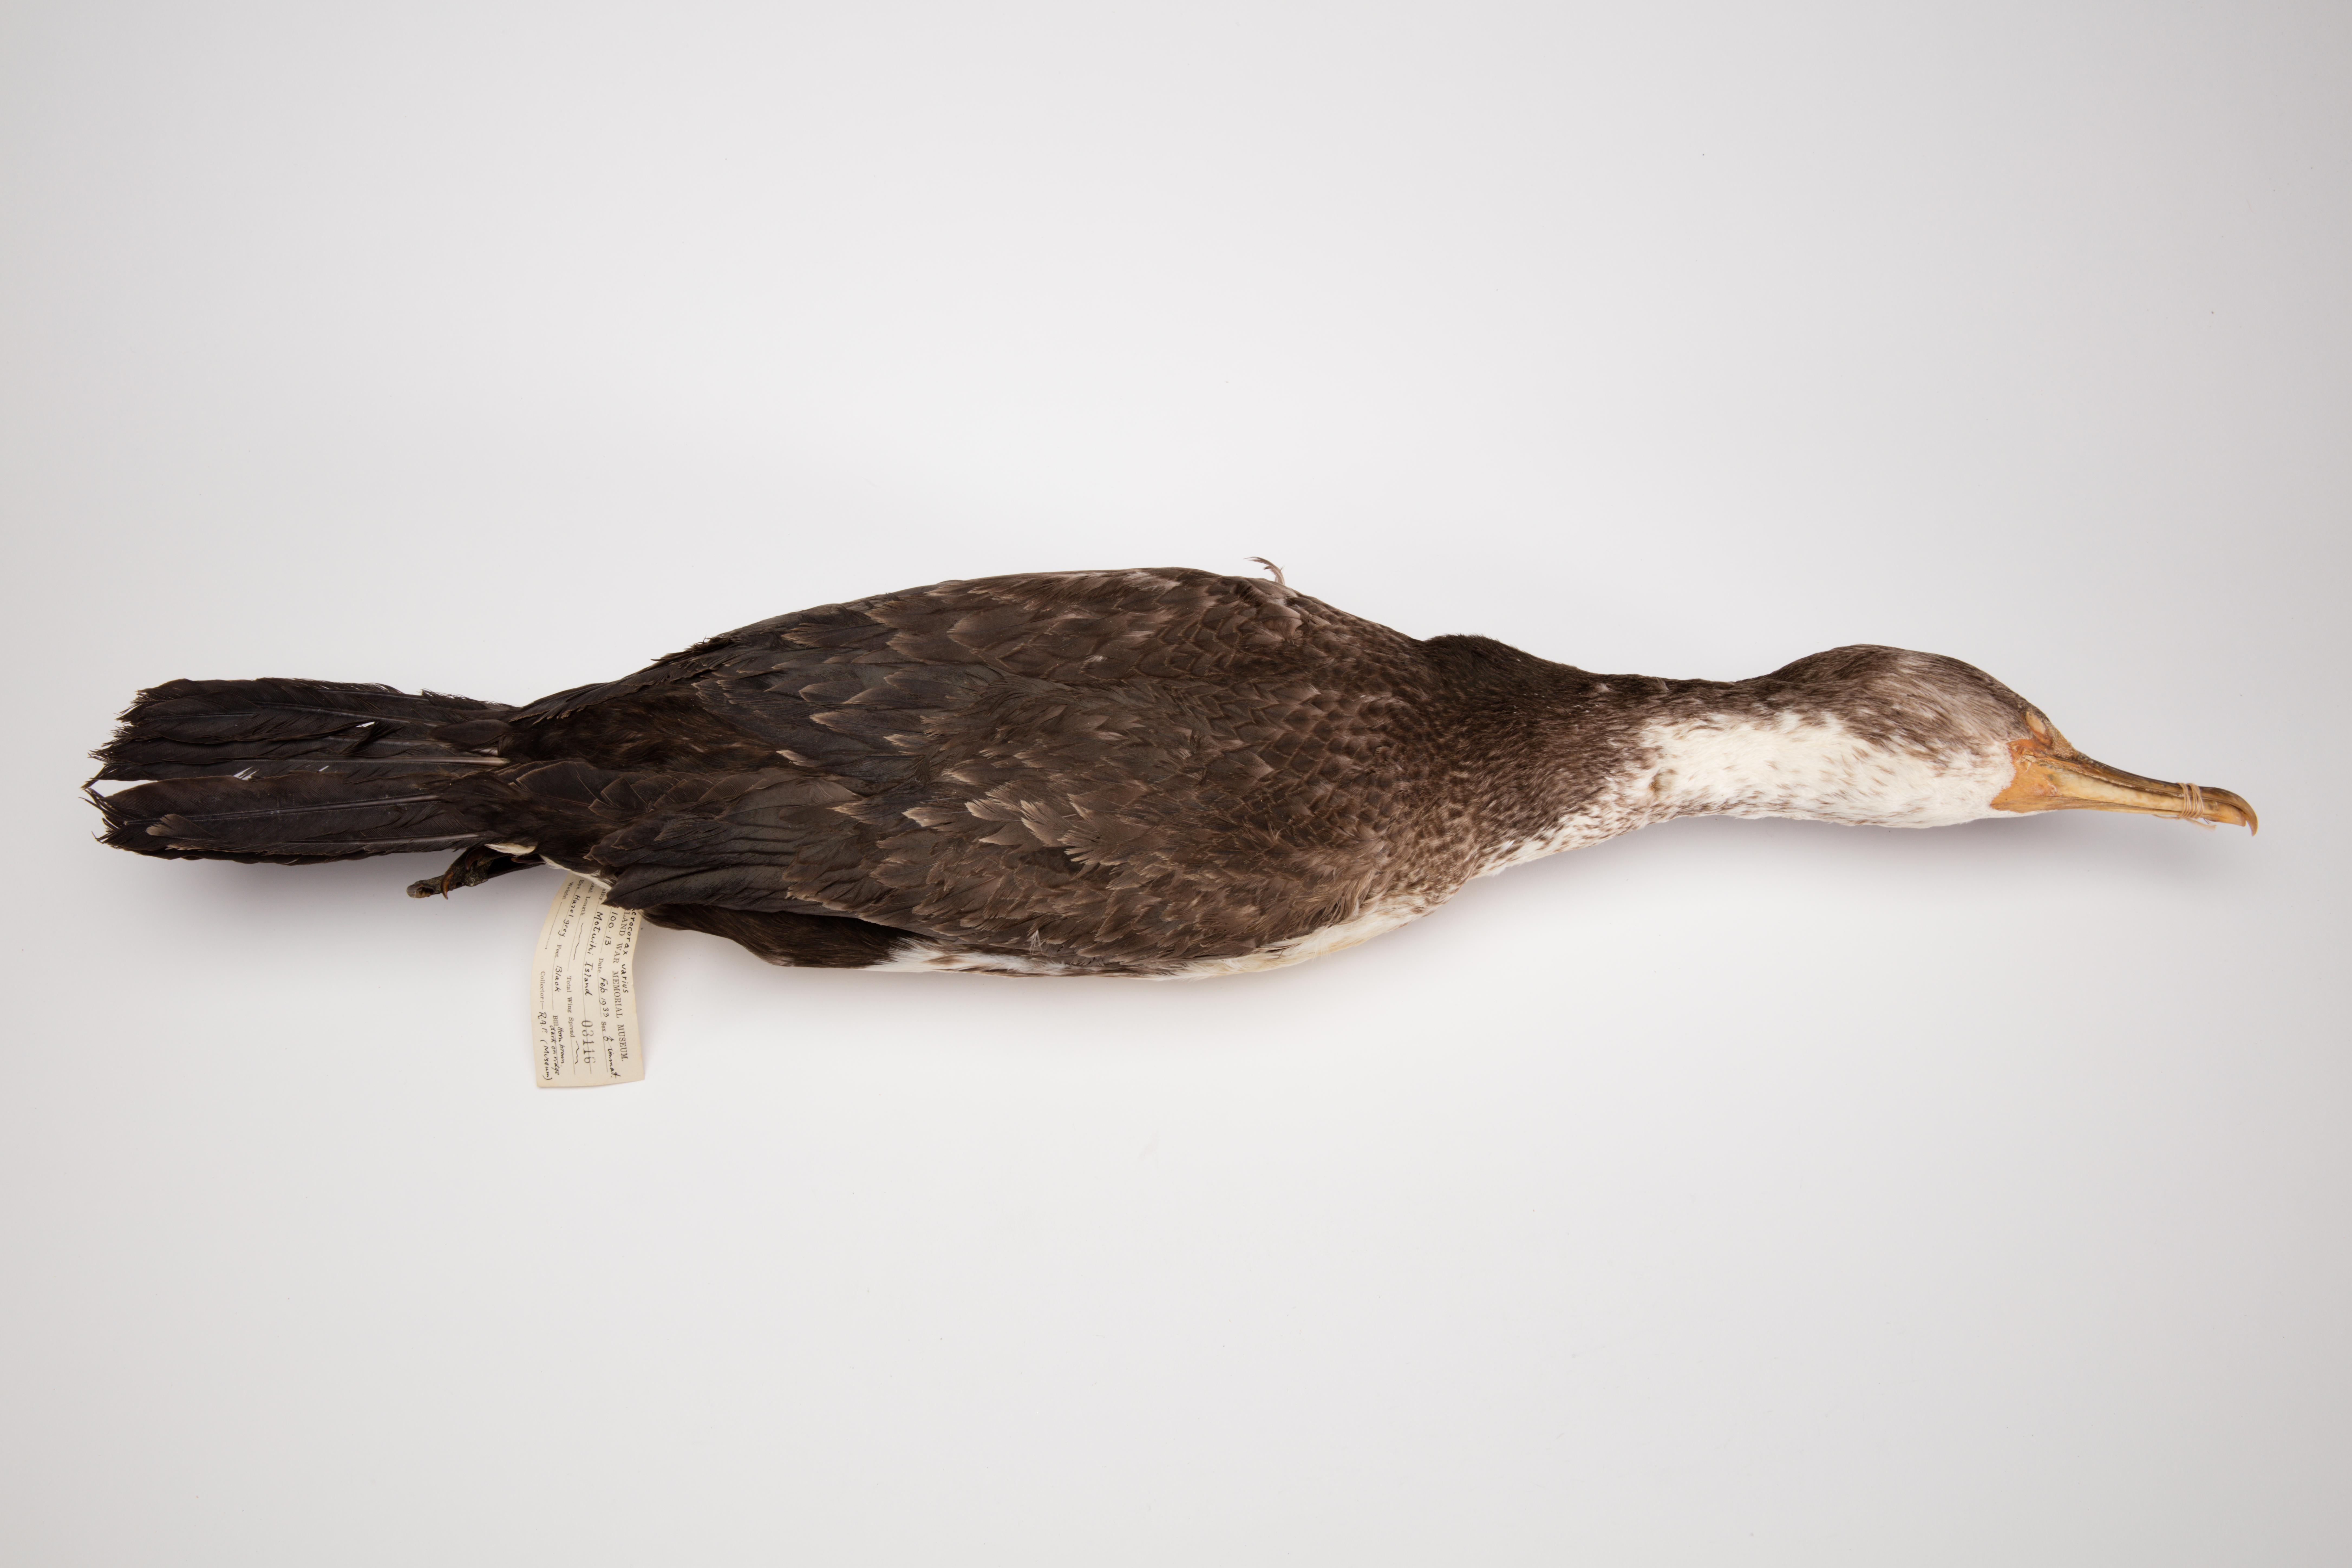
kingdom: Animalia
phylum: Chordata
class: Aves
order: Suliformes
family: Phalacrocoracidae
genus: Phalacrocorax
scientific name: Phalacrocorax varius
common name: Pied cormorant
